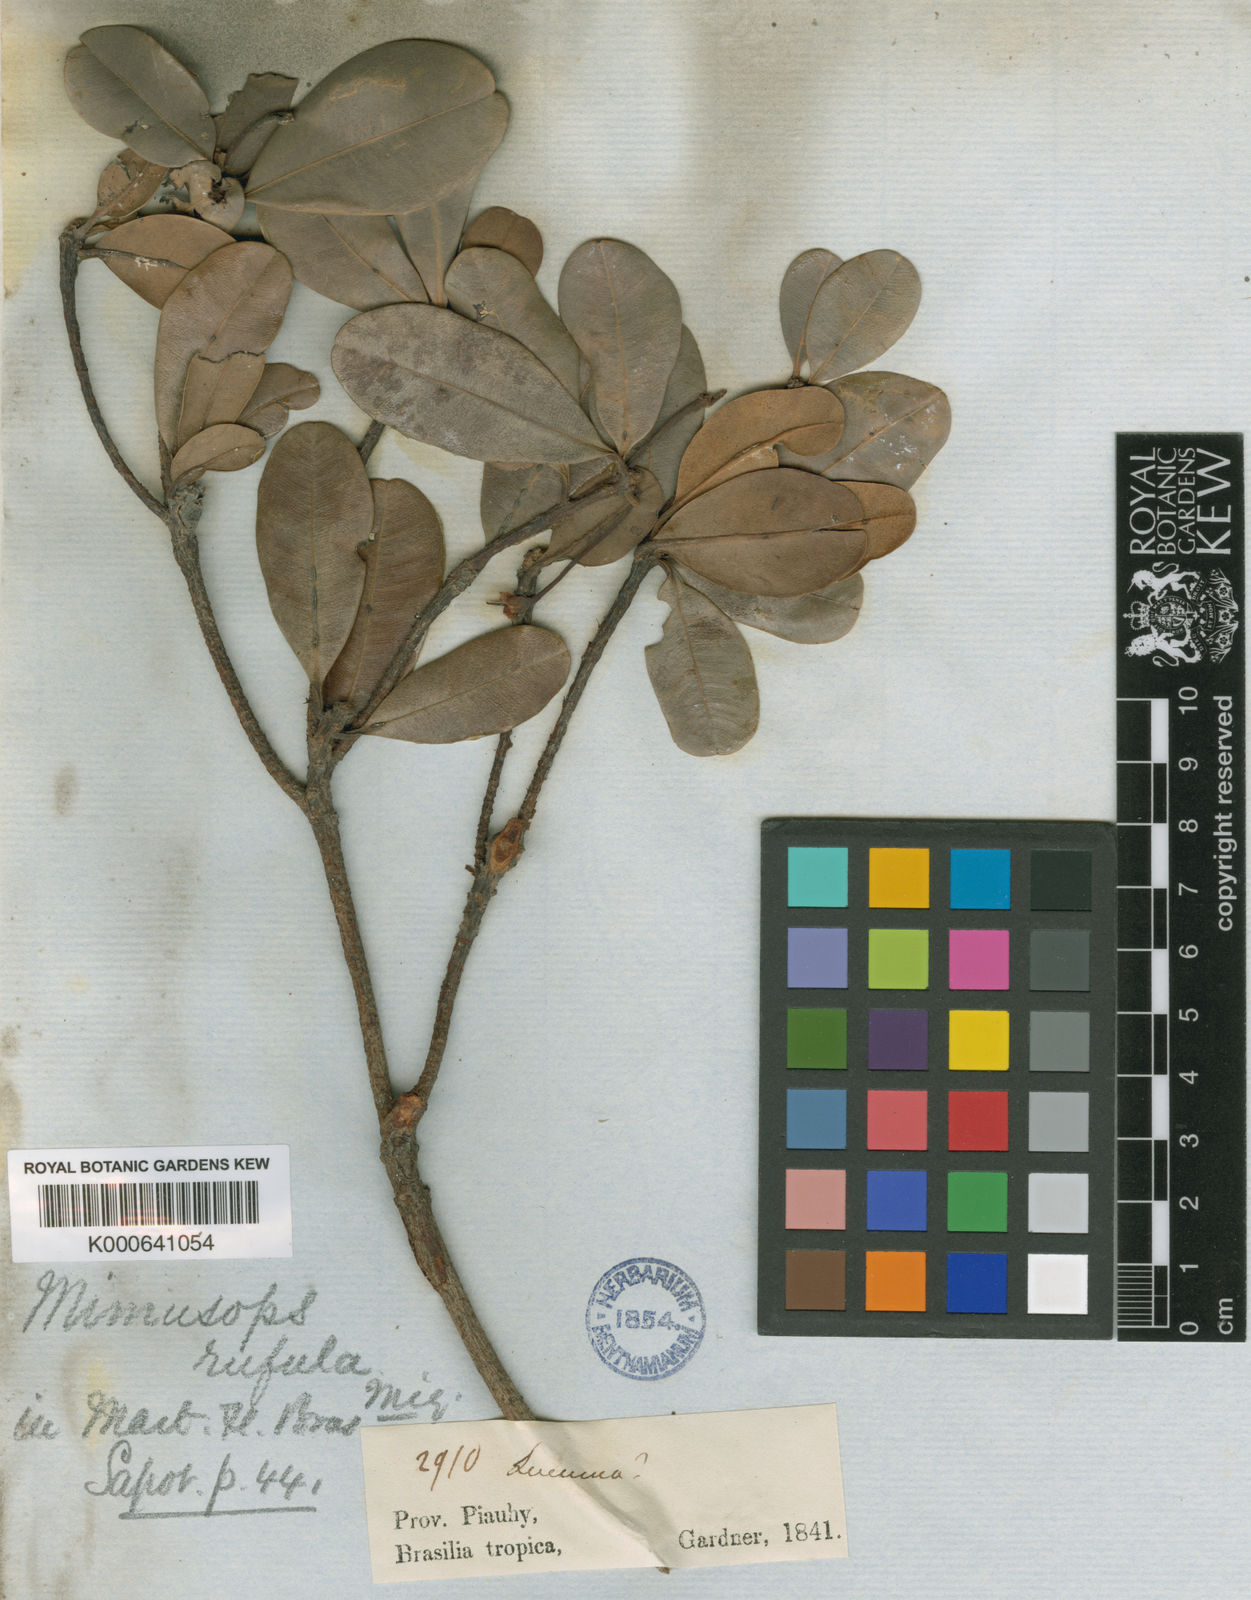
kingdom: Plantae
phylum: Tracheophyta
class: Magnoliopsida
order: Ericales
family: Sapotaceae
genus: Manilkara
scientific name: Manilkara rufula
